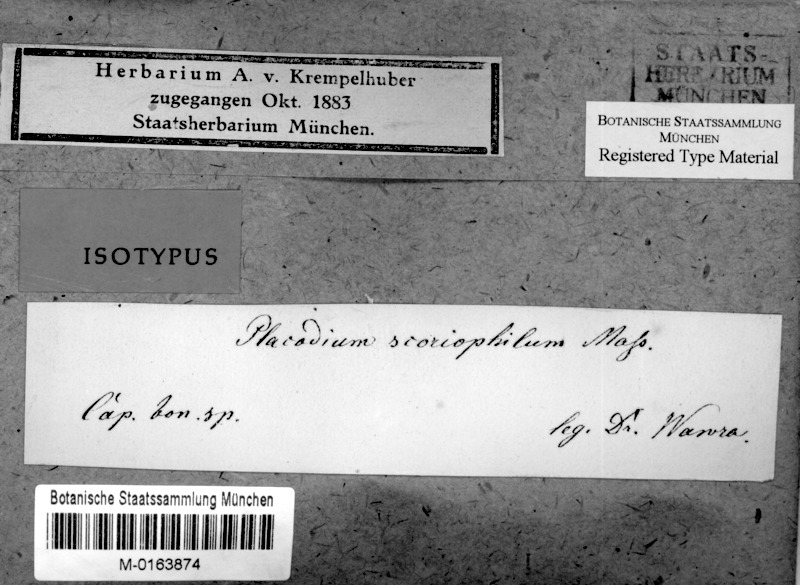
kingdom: Fungi
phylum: Ascomycota
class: Lecanoromycetes
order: Teloschistales
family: Teloschistaceae
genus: Usnochroma
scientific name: Usnochroma scoriophilum
